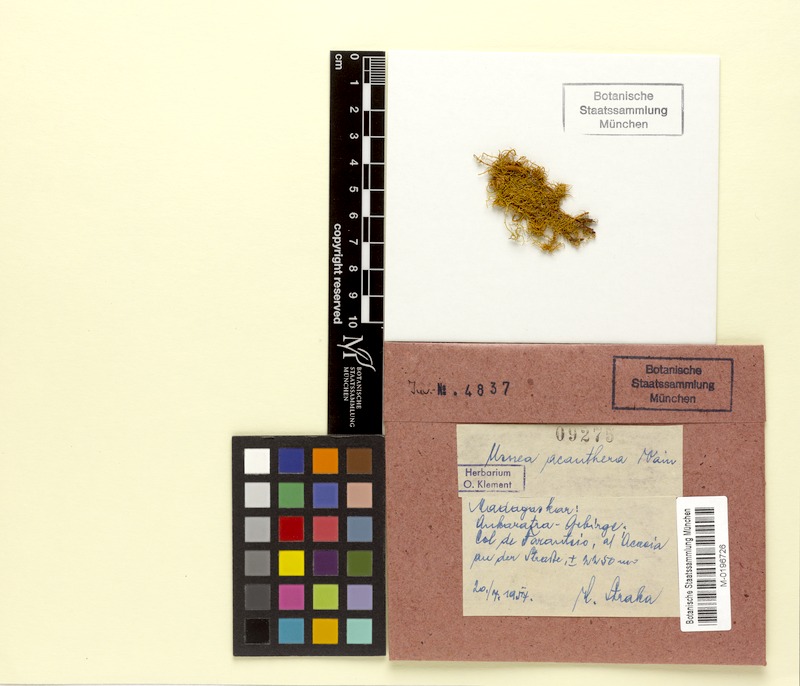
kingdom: Fungi
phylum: Ascomycota
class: Lecanoromycetes
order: Lecanorales
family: Parmeliaceae
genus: Usnea
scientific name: Usnea acanthera
